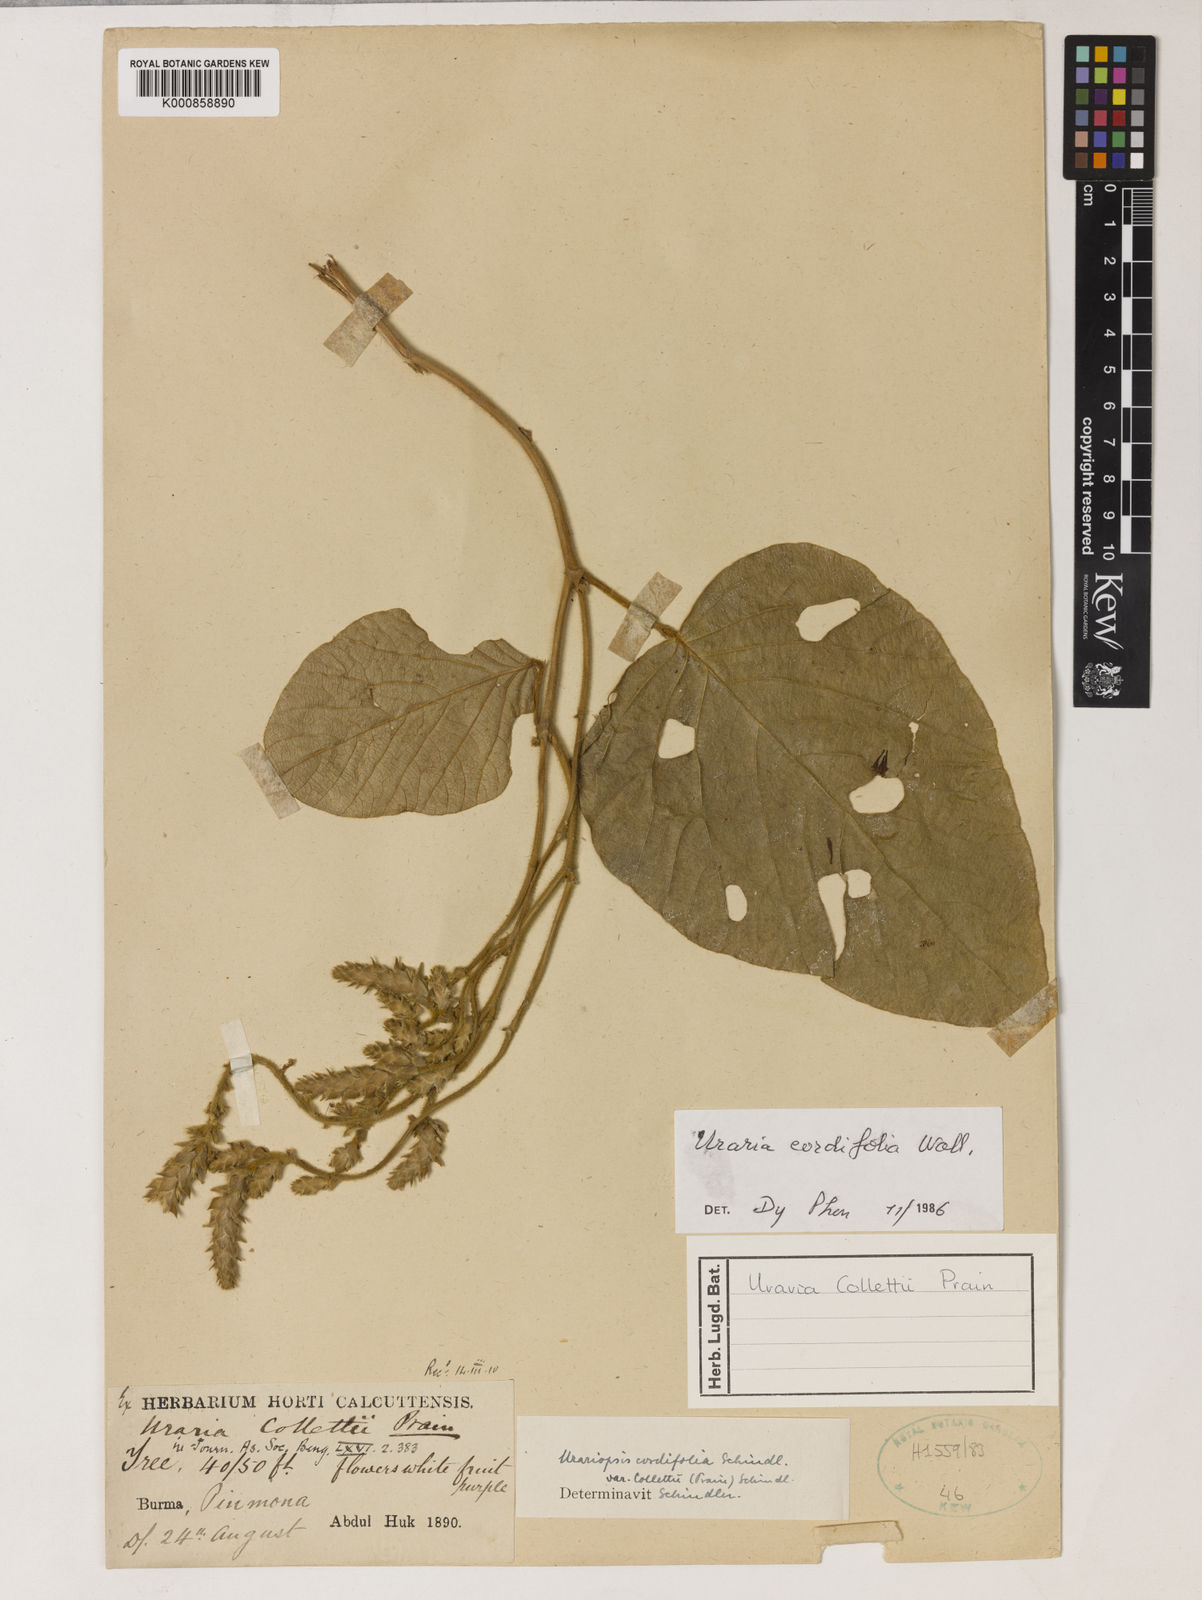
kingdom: Plantae
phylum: Tracheophyta
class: Magnoliopsida
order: Fabales
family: Fabaceae
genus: Uraria
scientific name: Uraria cordifolia
